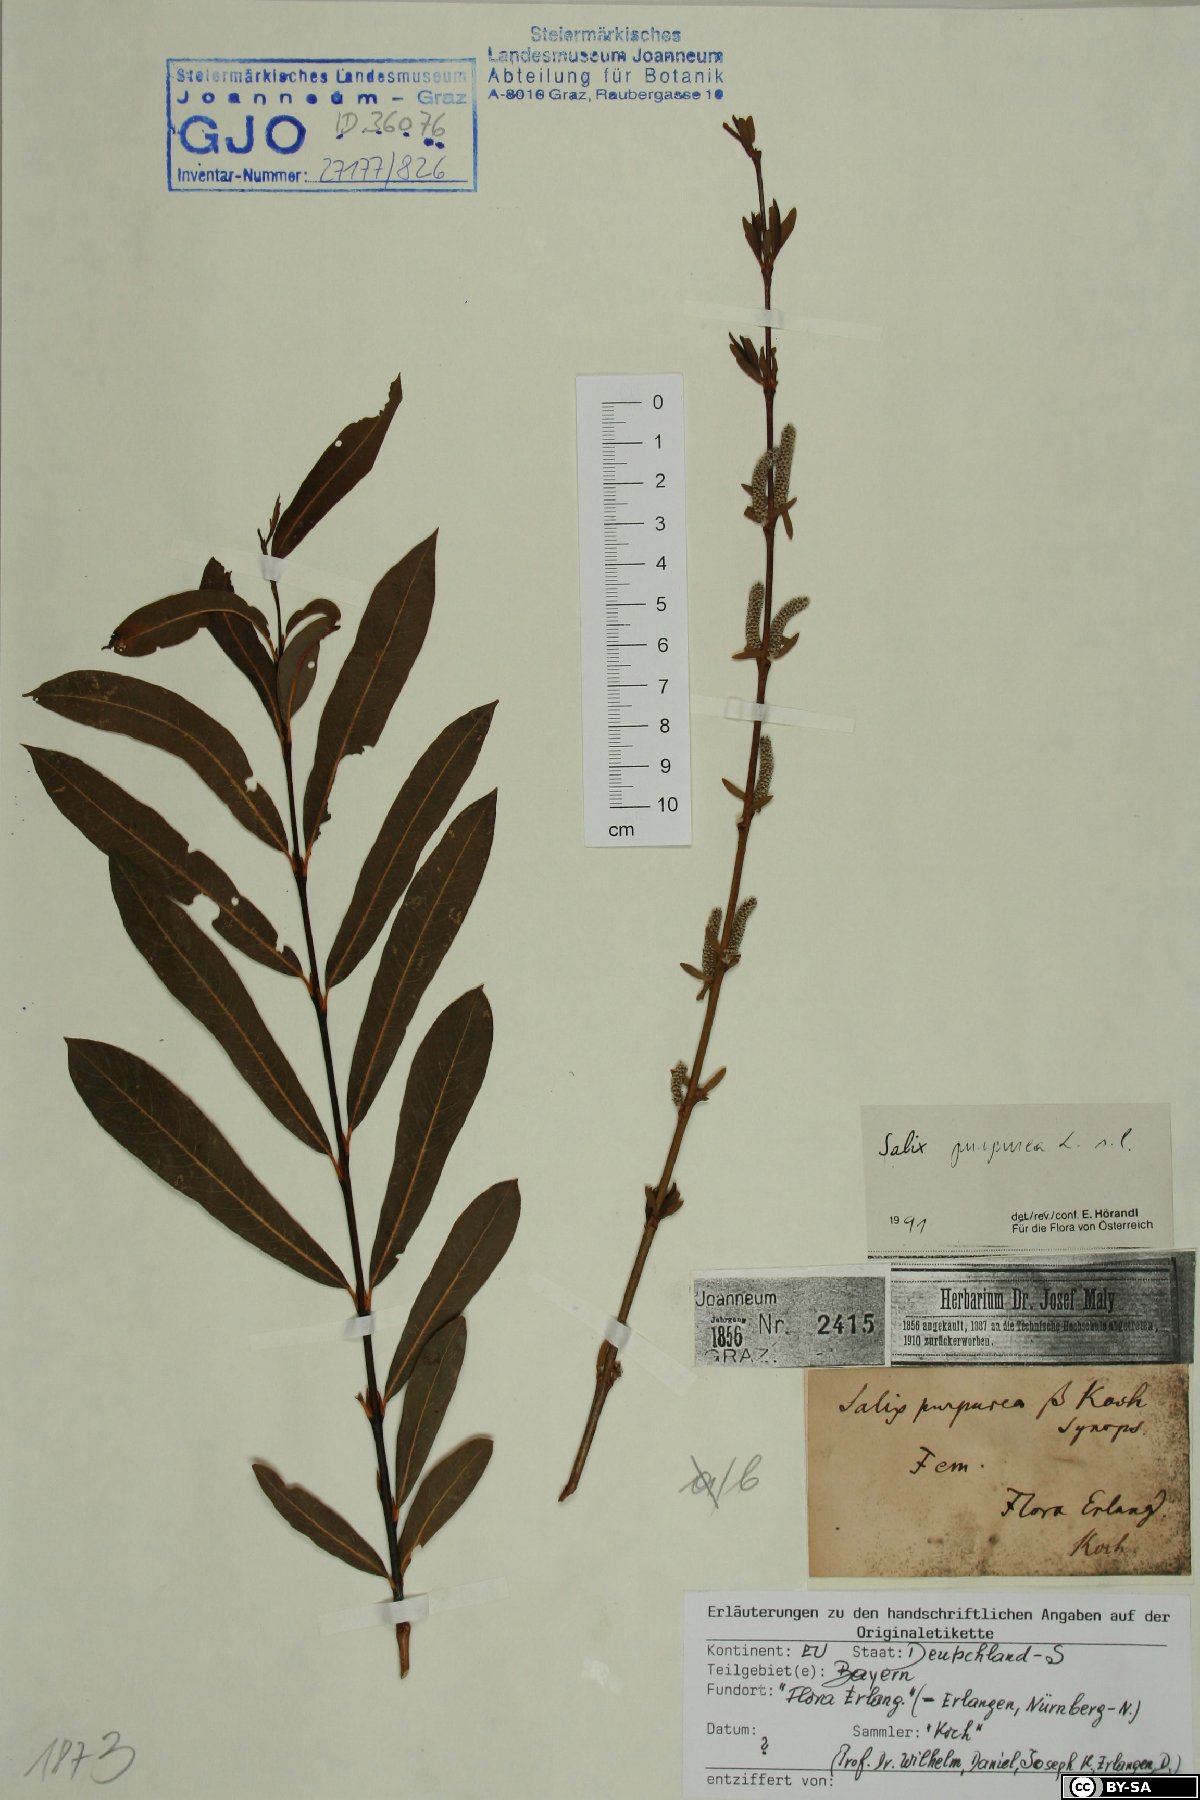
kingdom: Plantae
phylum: Tracheophyta
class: Magnoliopsida
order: Malpighiales
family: Salicaceae
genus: Salix
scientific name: Salix purpurea
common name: Purple willow
